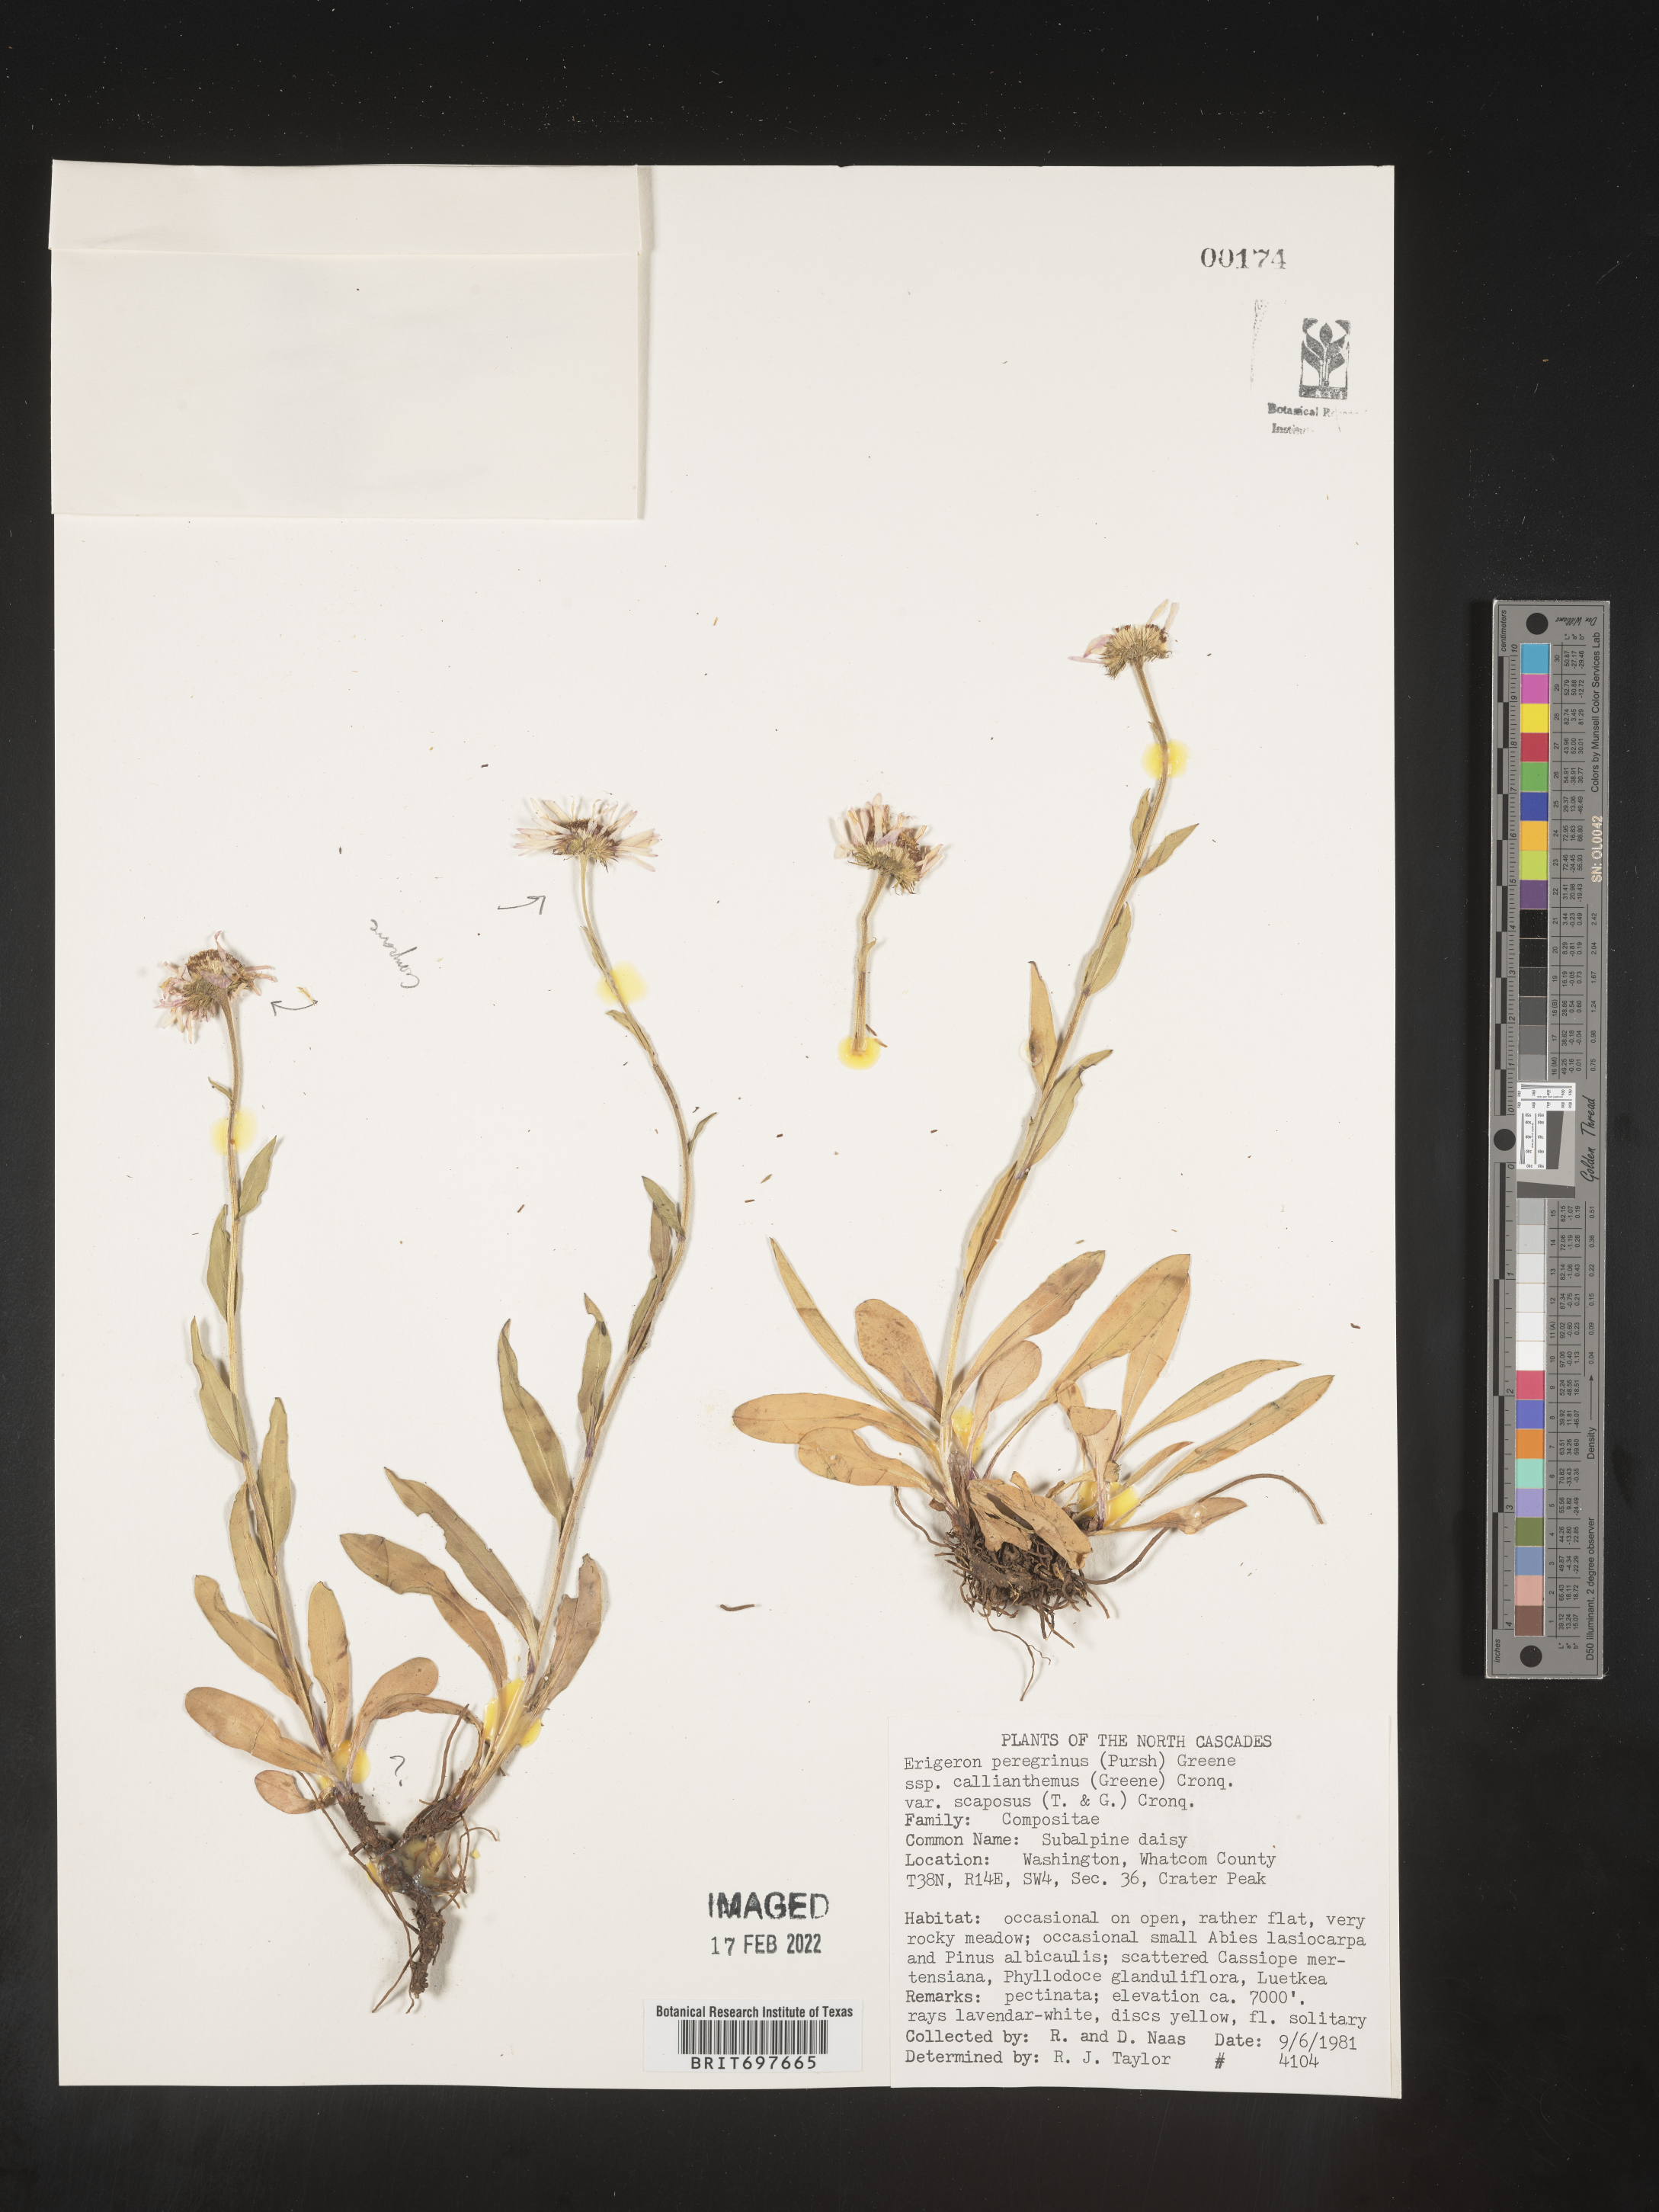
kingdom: Plantae
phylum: Tracheophyta
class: Magnoliopsida
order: Asterales
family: Asteraceae
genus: Erigeron
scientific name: Erigeron glacialis
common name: Subalpine fleabane
